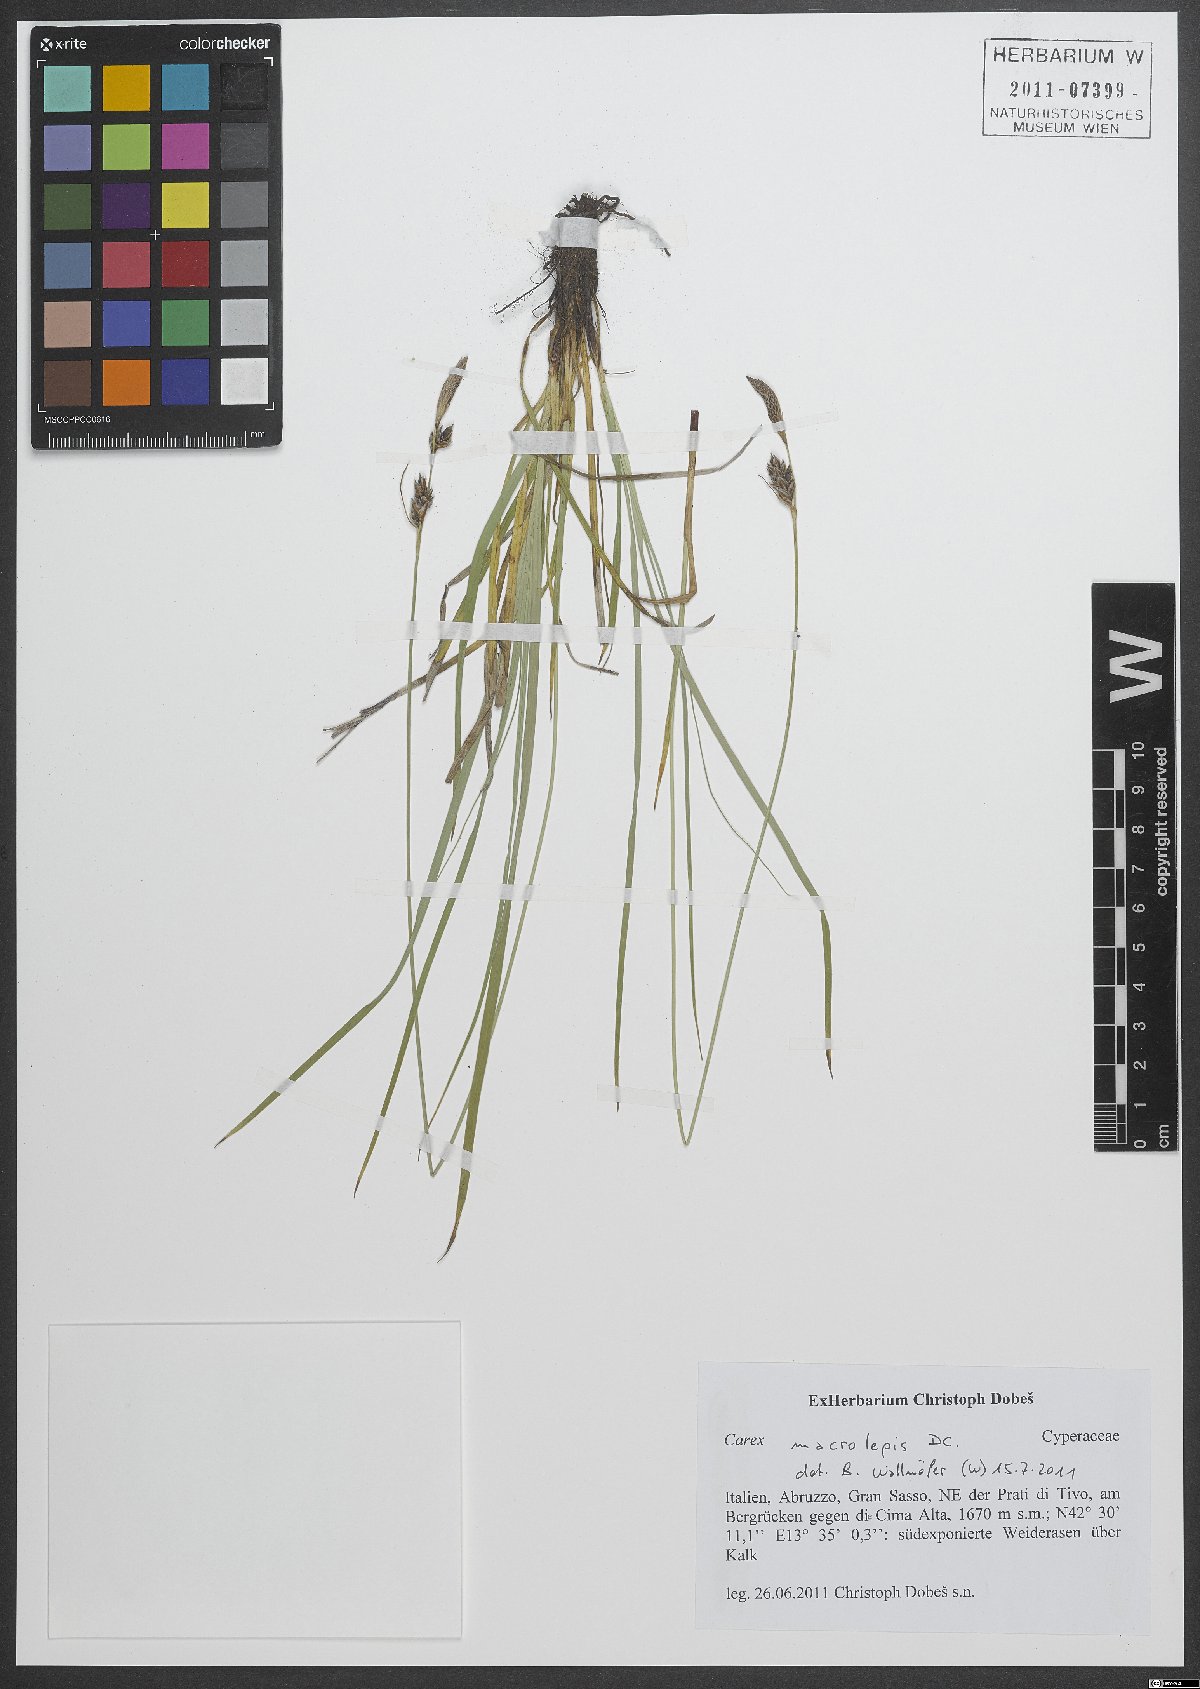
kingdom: Plantae
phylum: Tracheophyta
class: Liliopsida
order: Poales
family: Cyperaceae
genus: Carex
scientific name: Carex macrolepis
